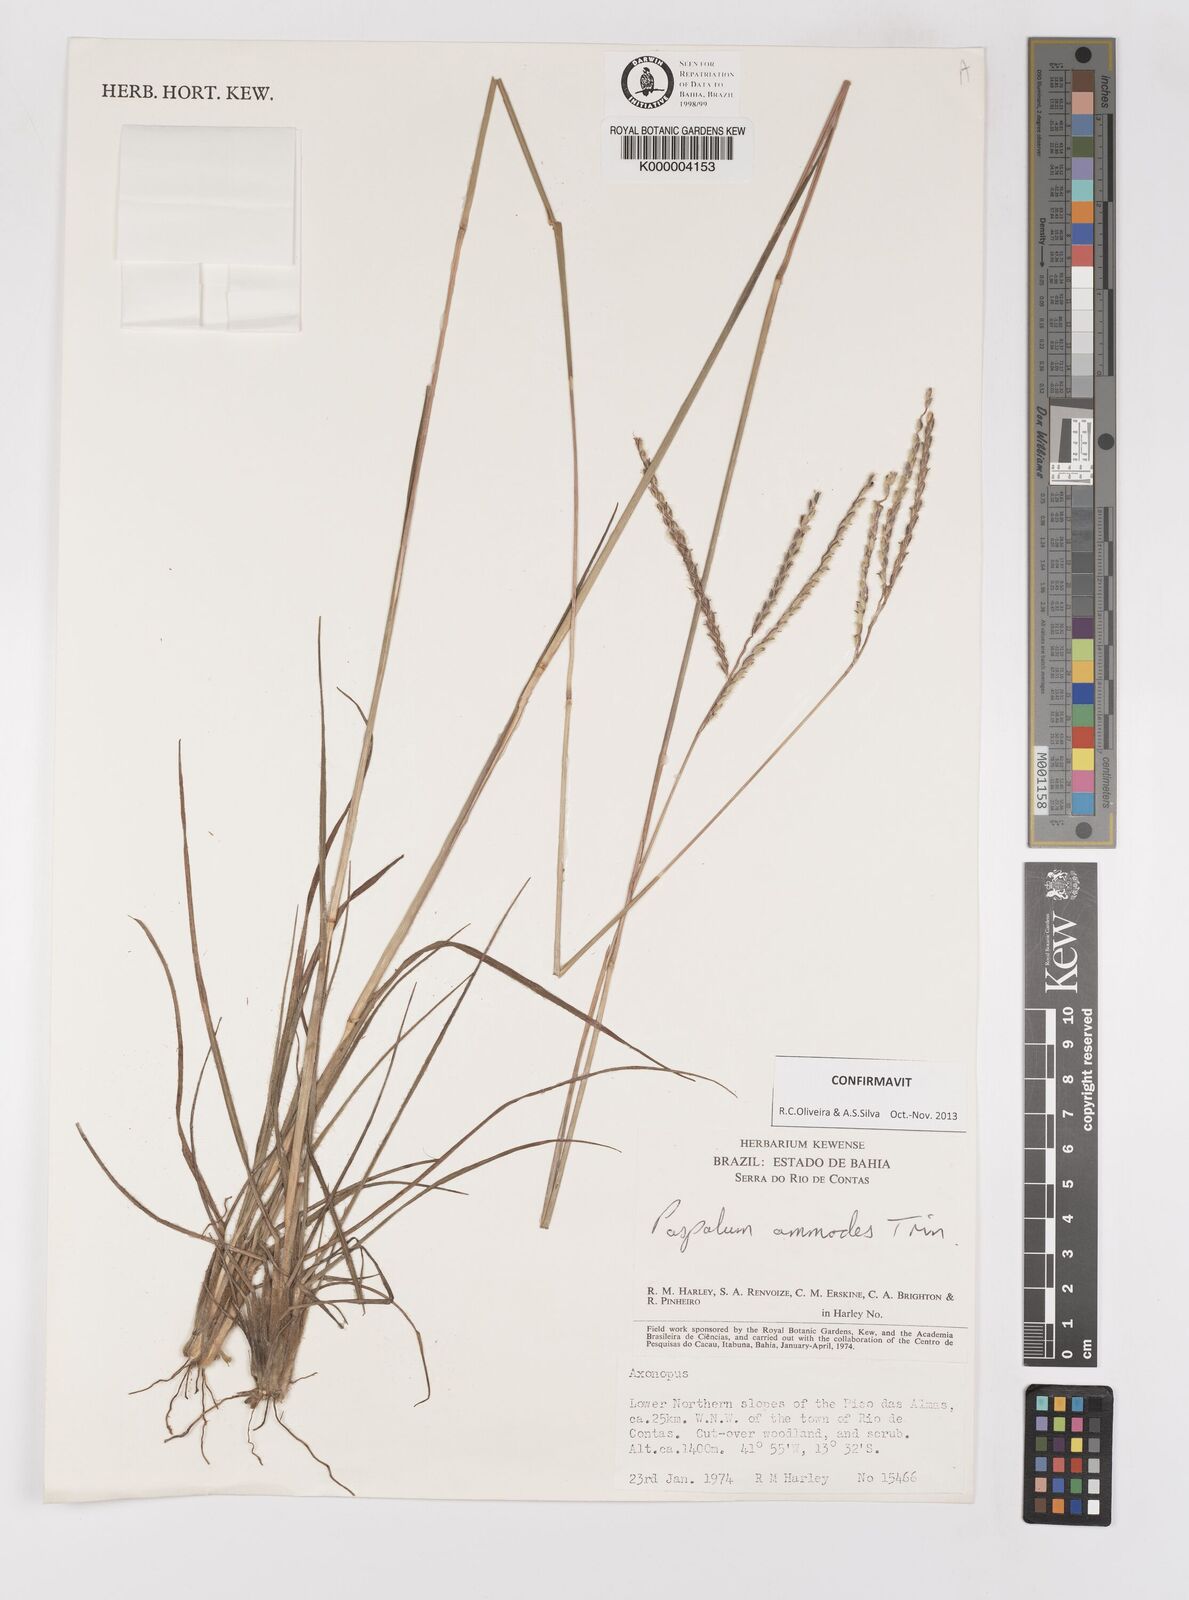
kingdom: Plantae
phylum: Tracheophyta
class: Liliopsida
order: Poales
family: Poaceae
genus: Paspalum
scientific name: Paspalum ammodes
